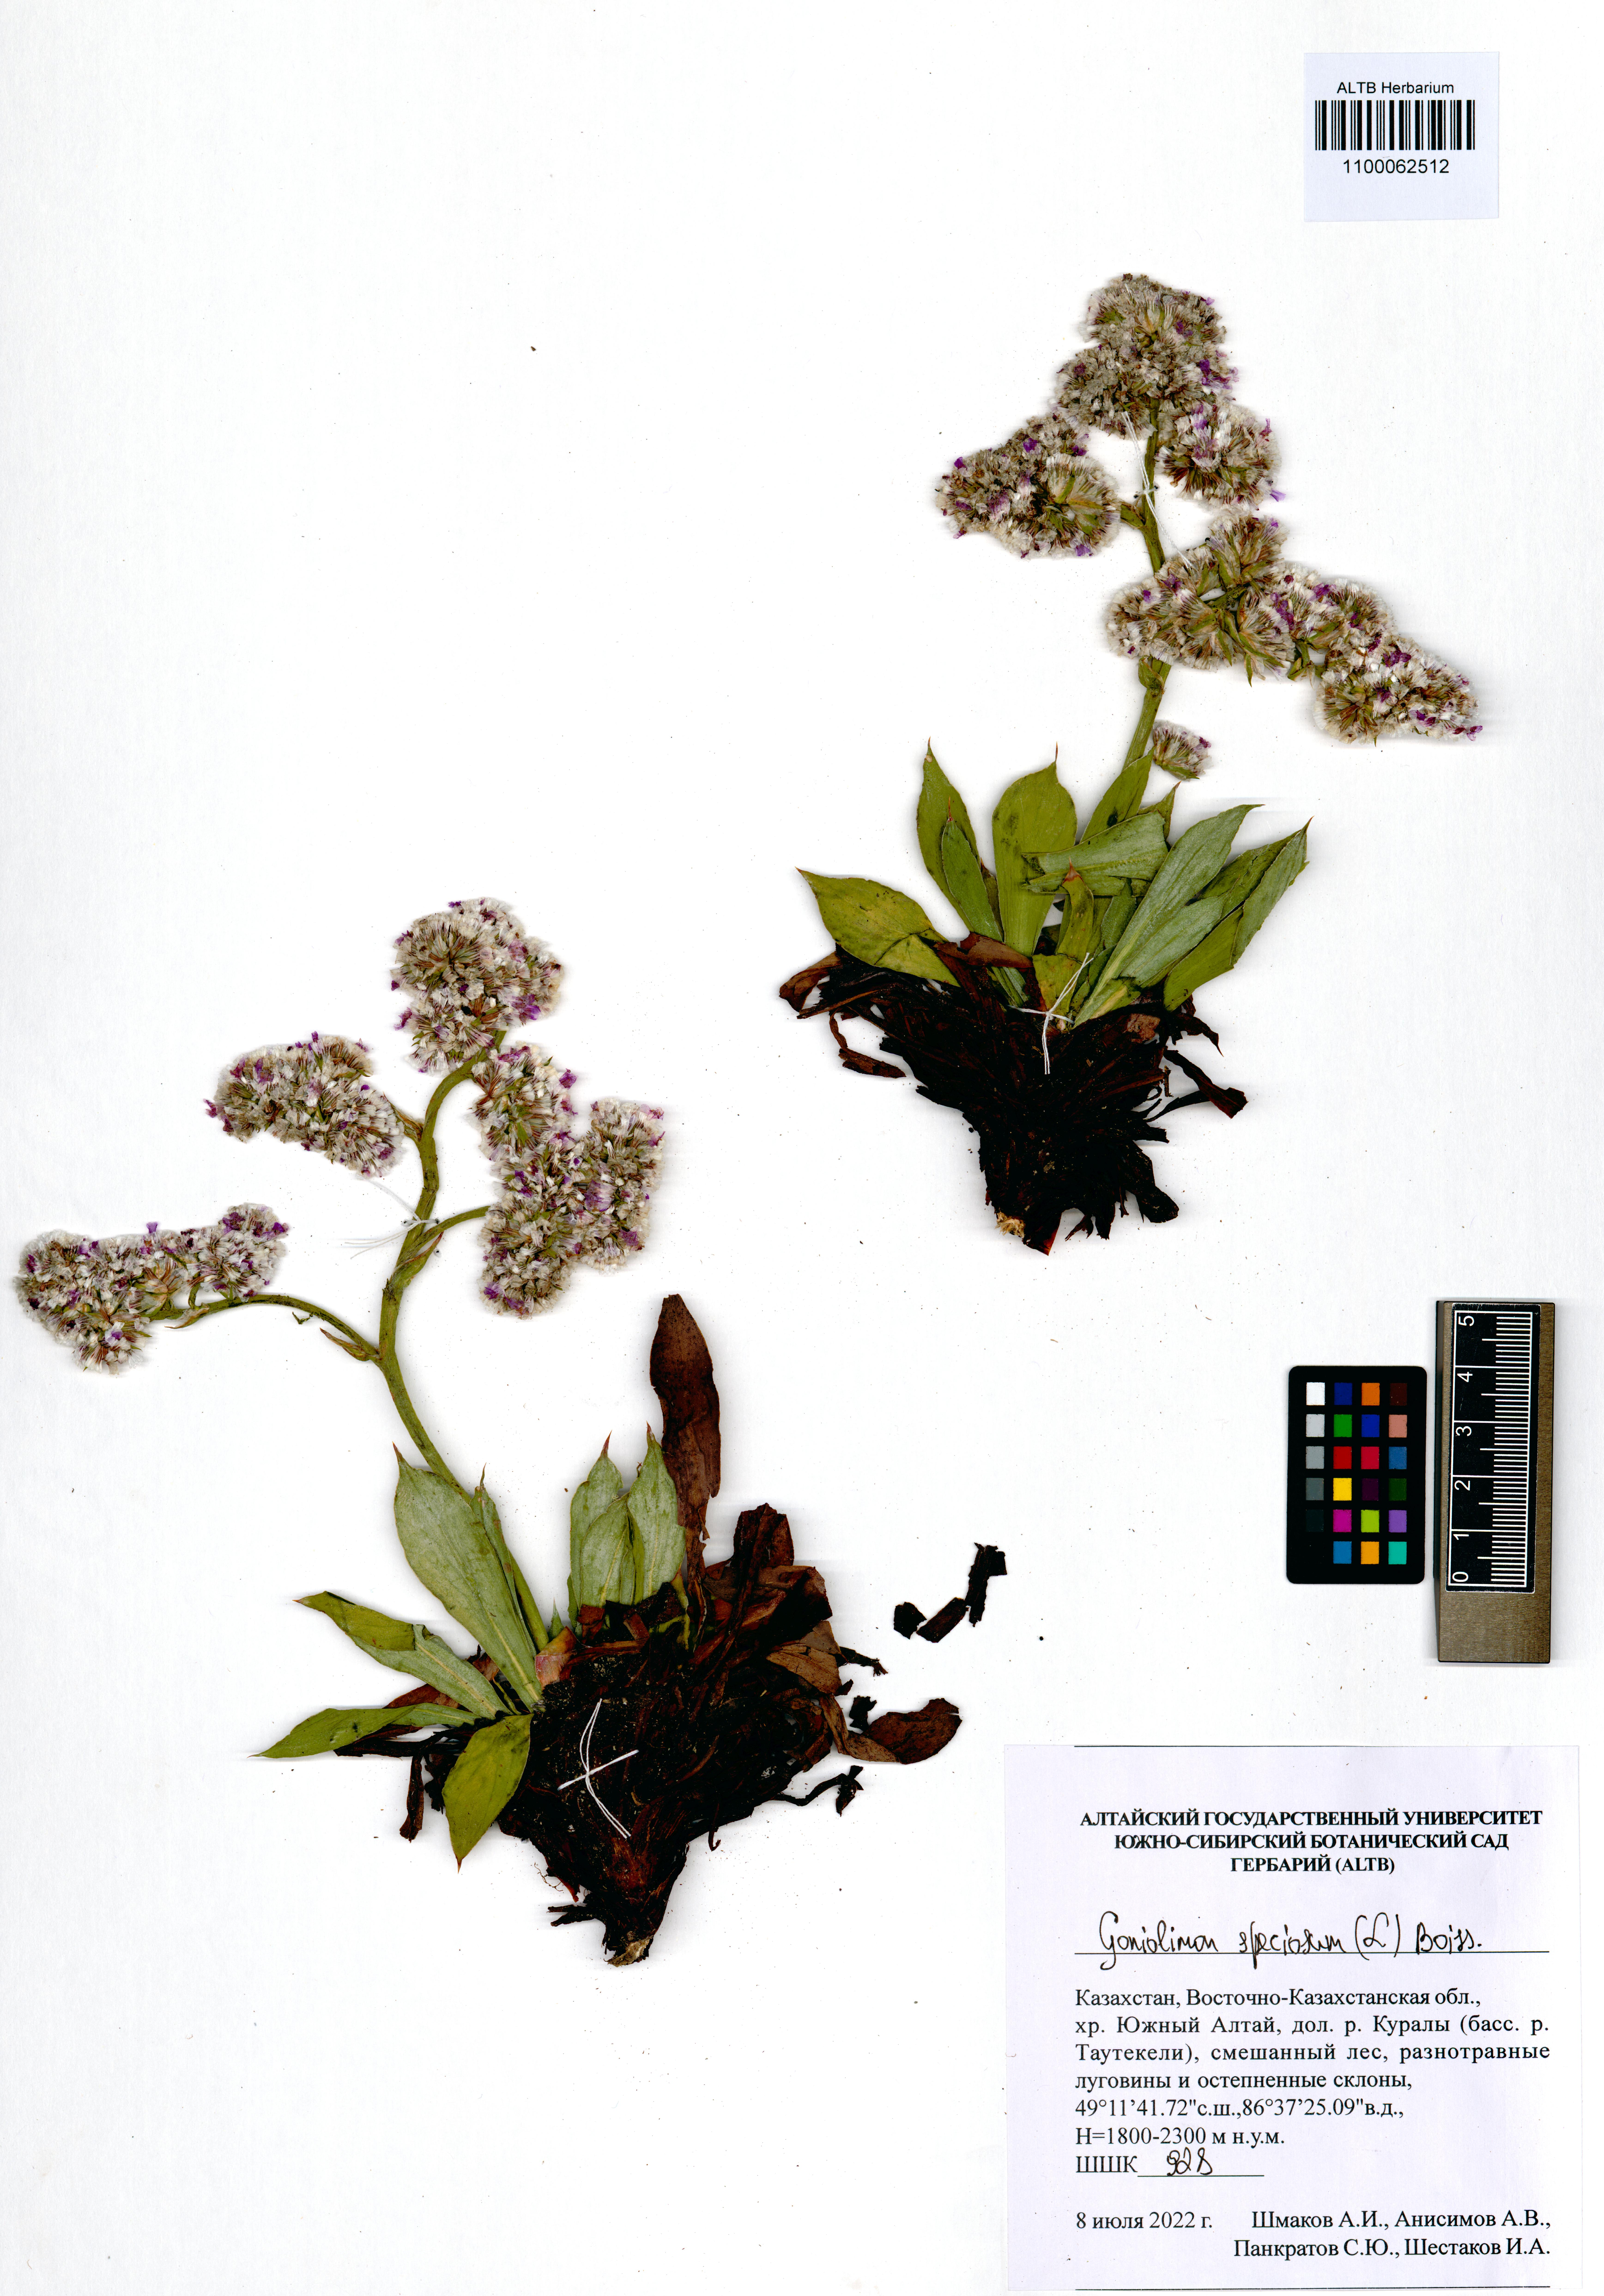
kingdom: Plantae
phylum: Tracheophyta
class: Magnoliopsida
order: Caryophyllales
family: Plumbaginaceae
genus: Goniolimon
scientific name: Goniolimon speciosum
